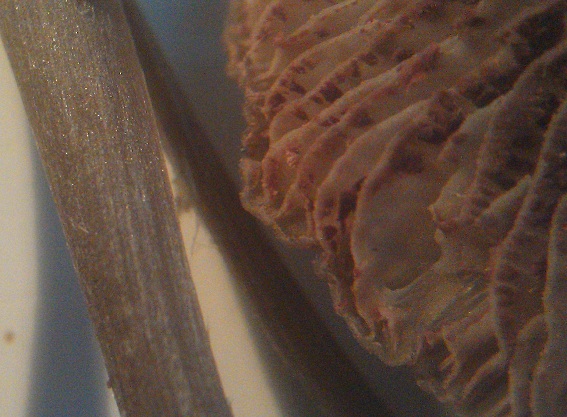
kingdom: Fungi
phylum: Basidiomycota
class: Agaricomycetes
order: Agaricales
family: Entolomataceae
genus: Entoloma
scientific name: Entoloma hebes
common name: krat-rødblad
